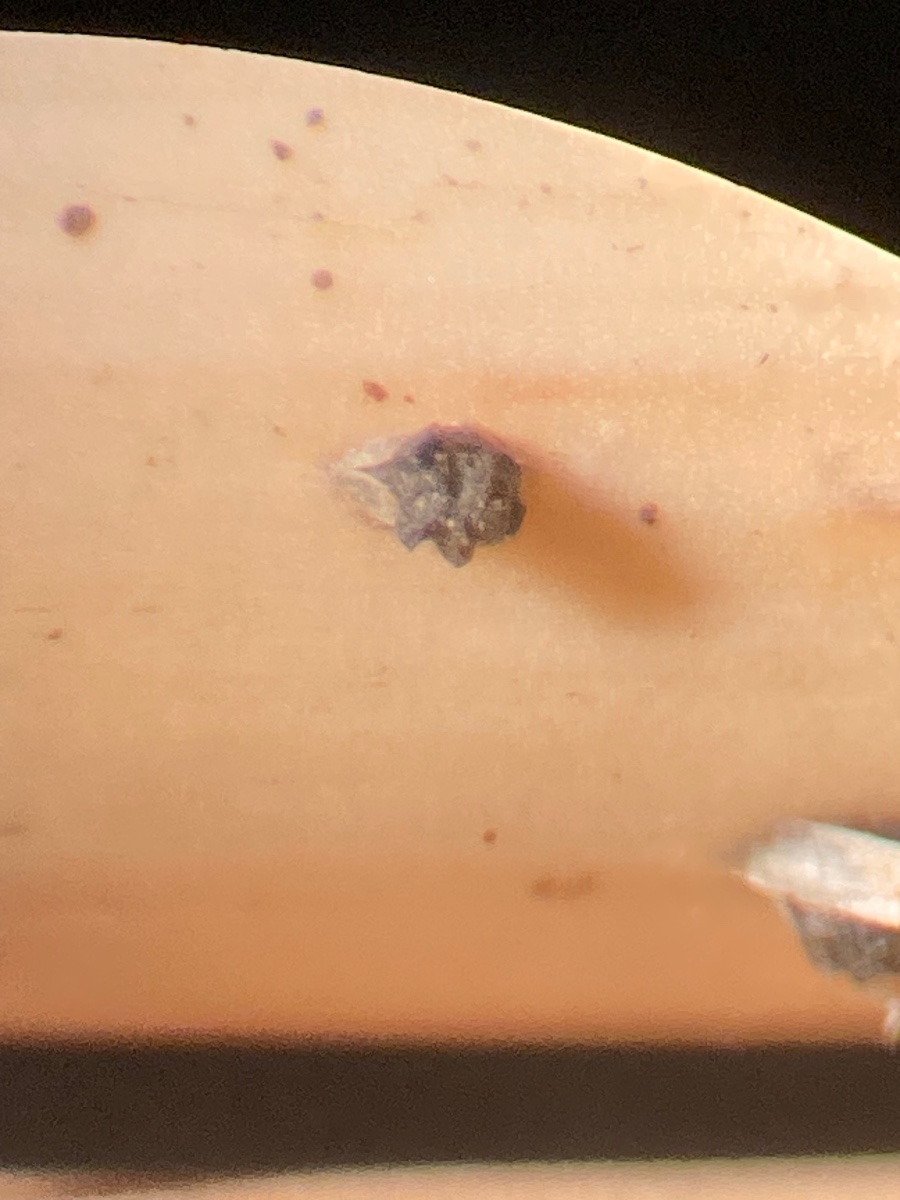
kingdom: Fungi
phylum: Ascomycota
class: Leotiomycetes
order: Helotiales
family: Godroniaceae
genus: Godronia
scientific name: Godronia muehlenbeckii
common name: tagrør-urneskive
